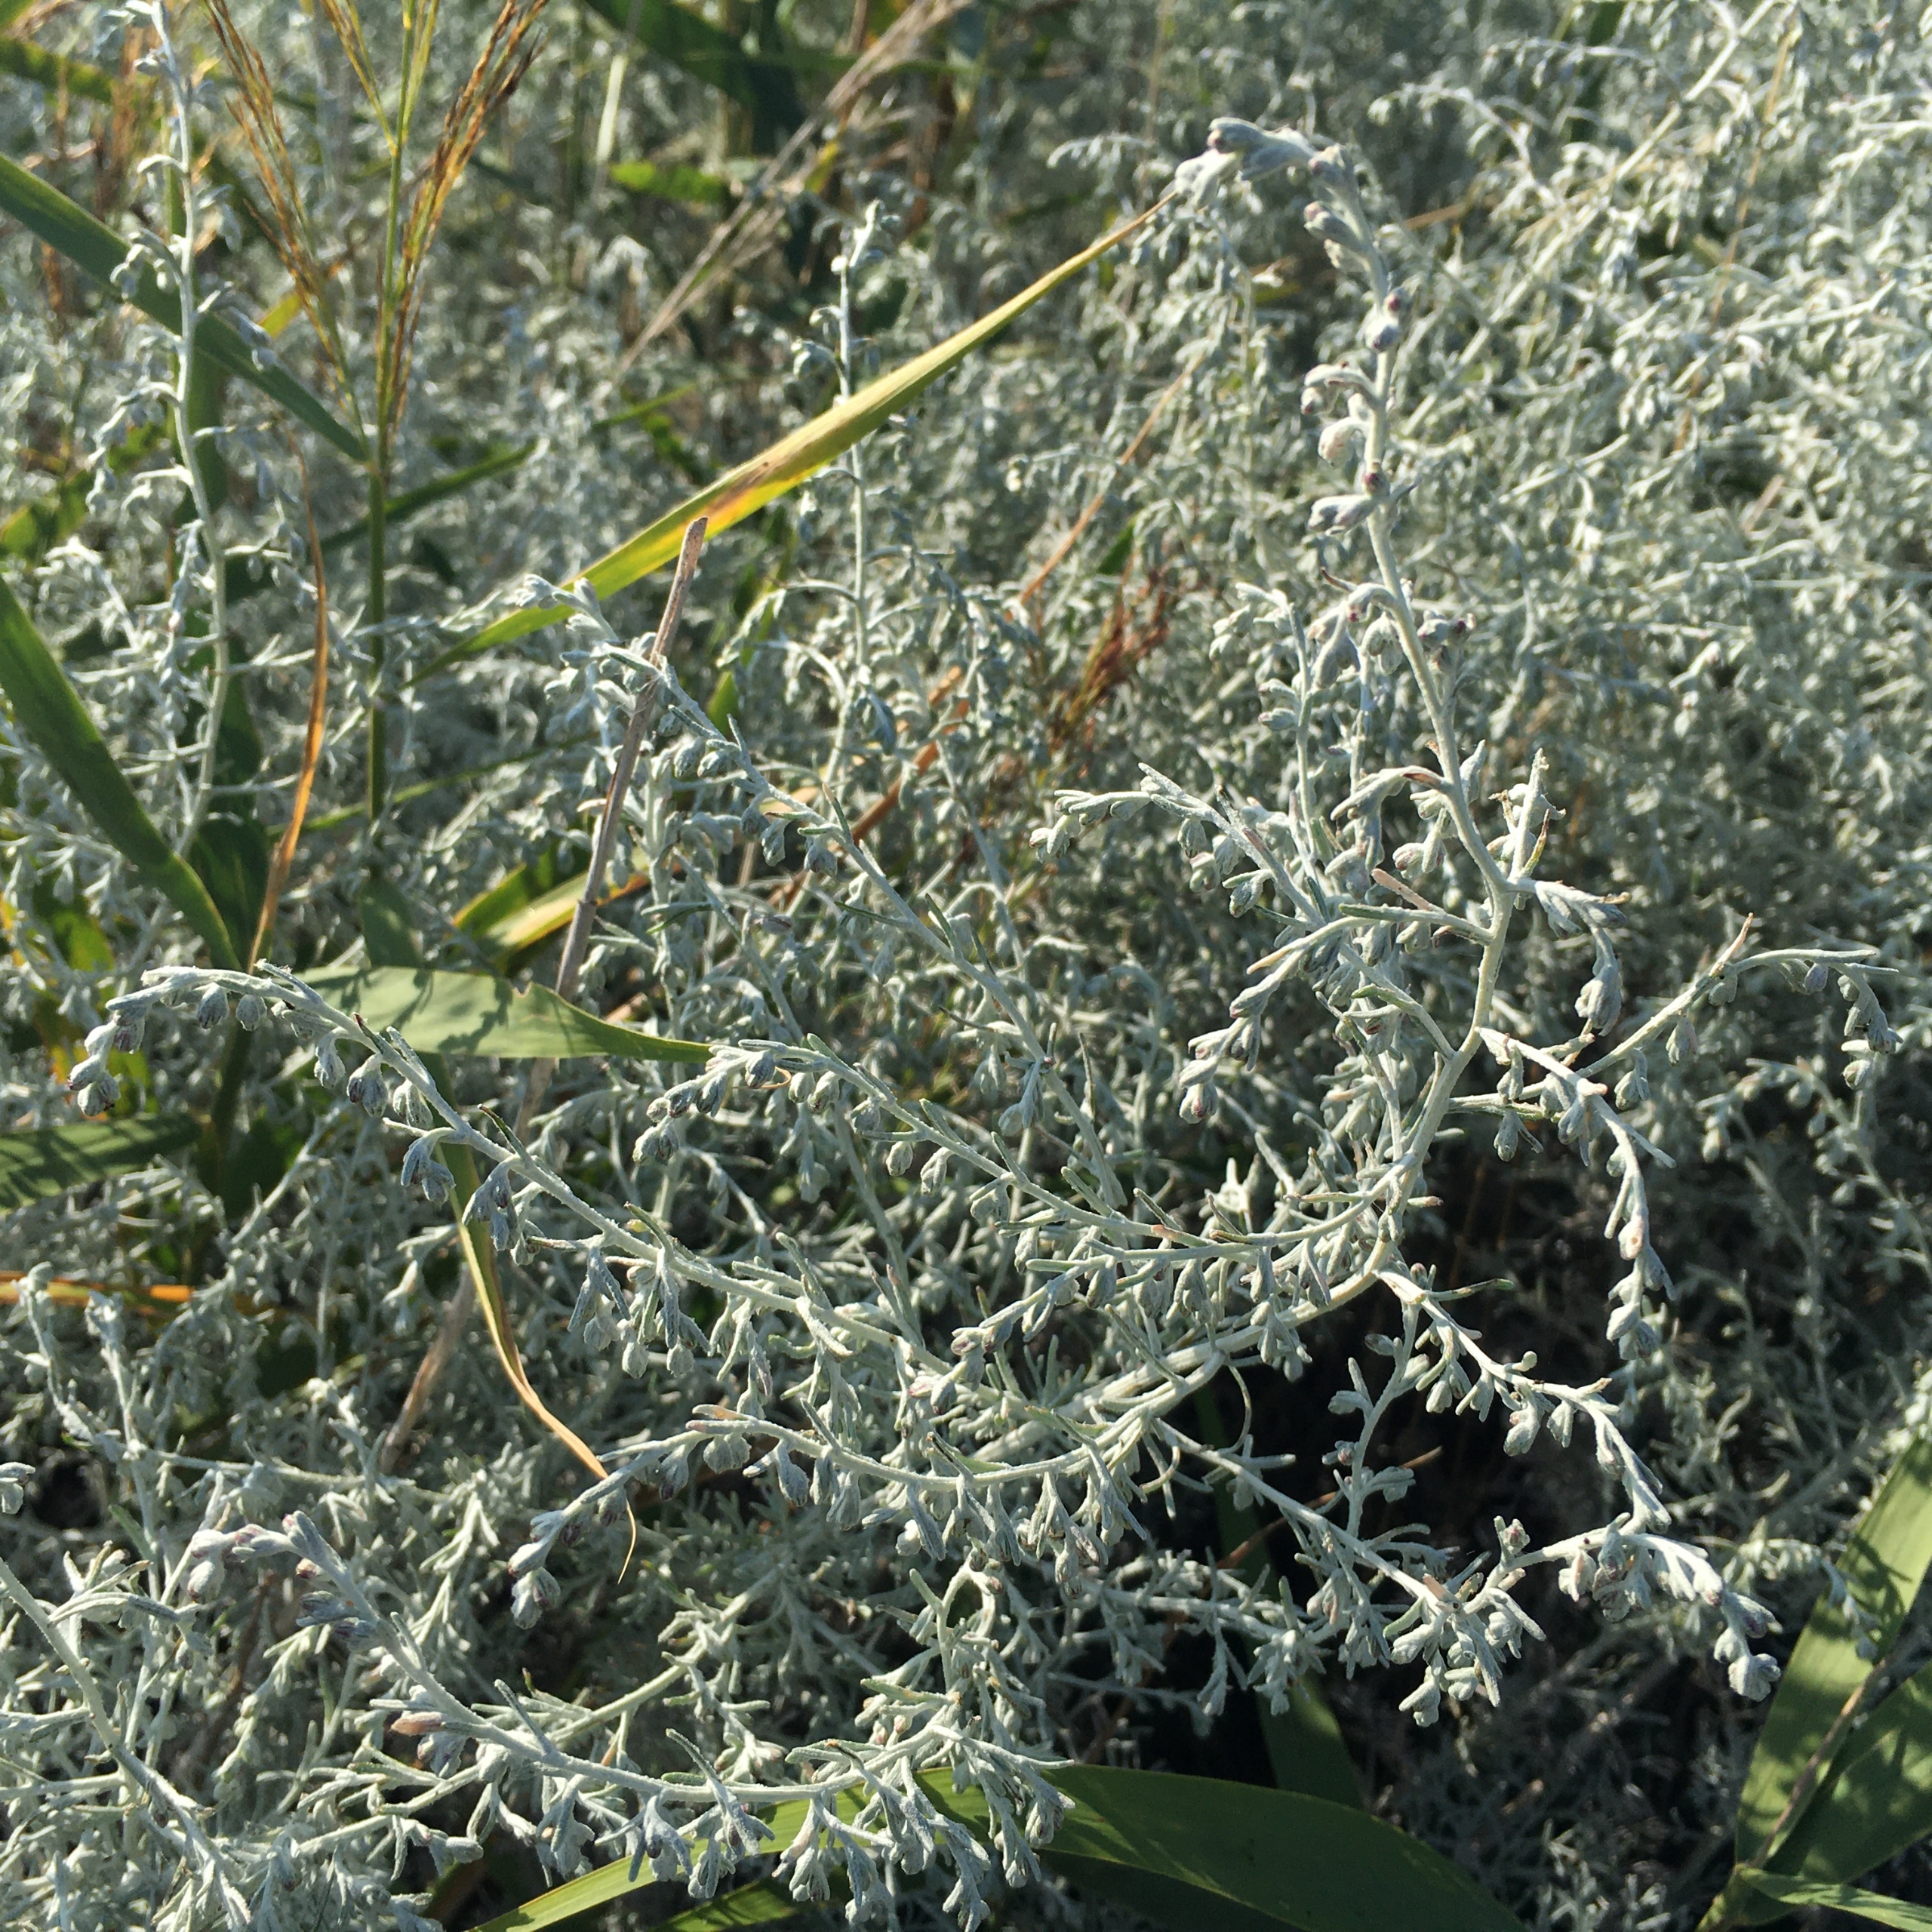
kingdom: Plantae
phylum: Tracheophyta
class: Magnoliopsida
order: Asterales
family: Asteraceae
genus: Artemisia
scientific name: Artemisia maritima
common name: Strandmalurt
